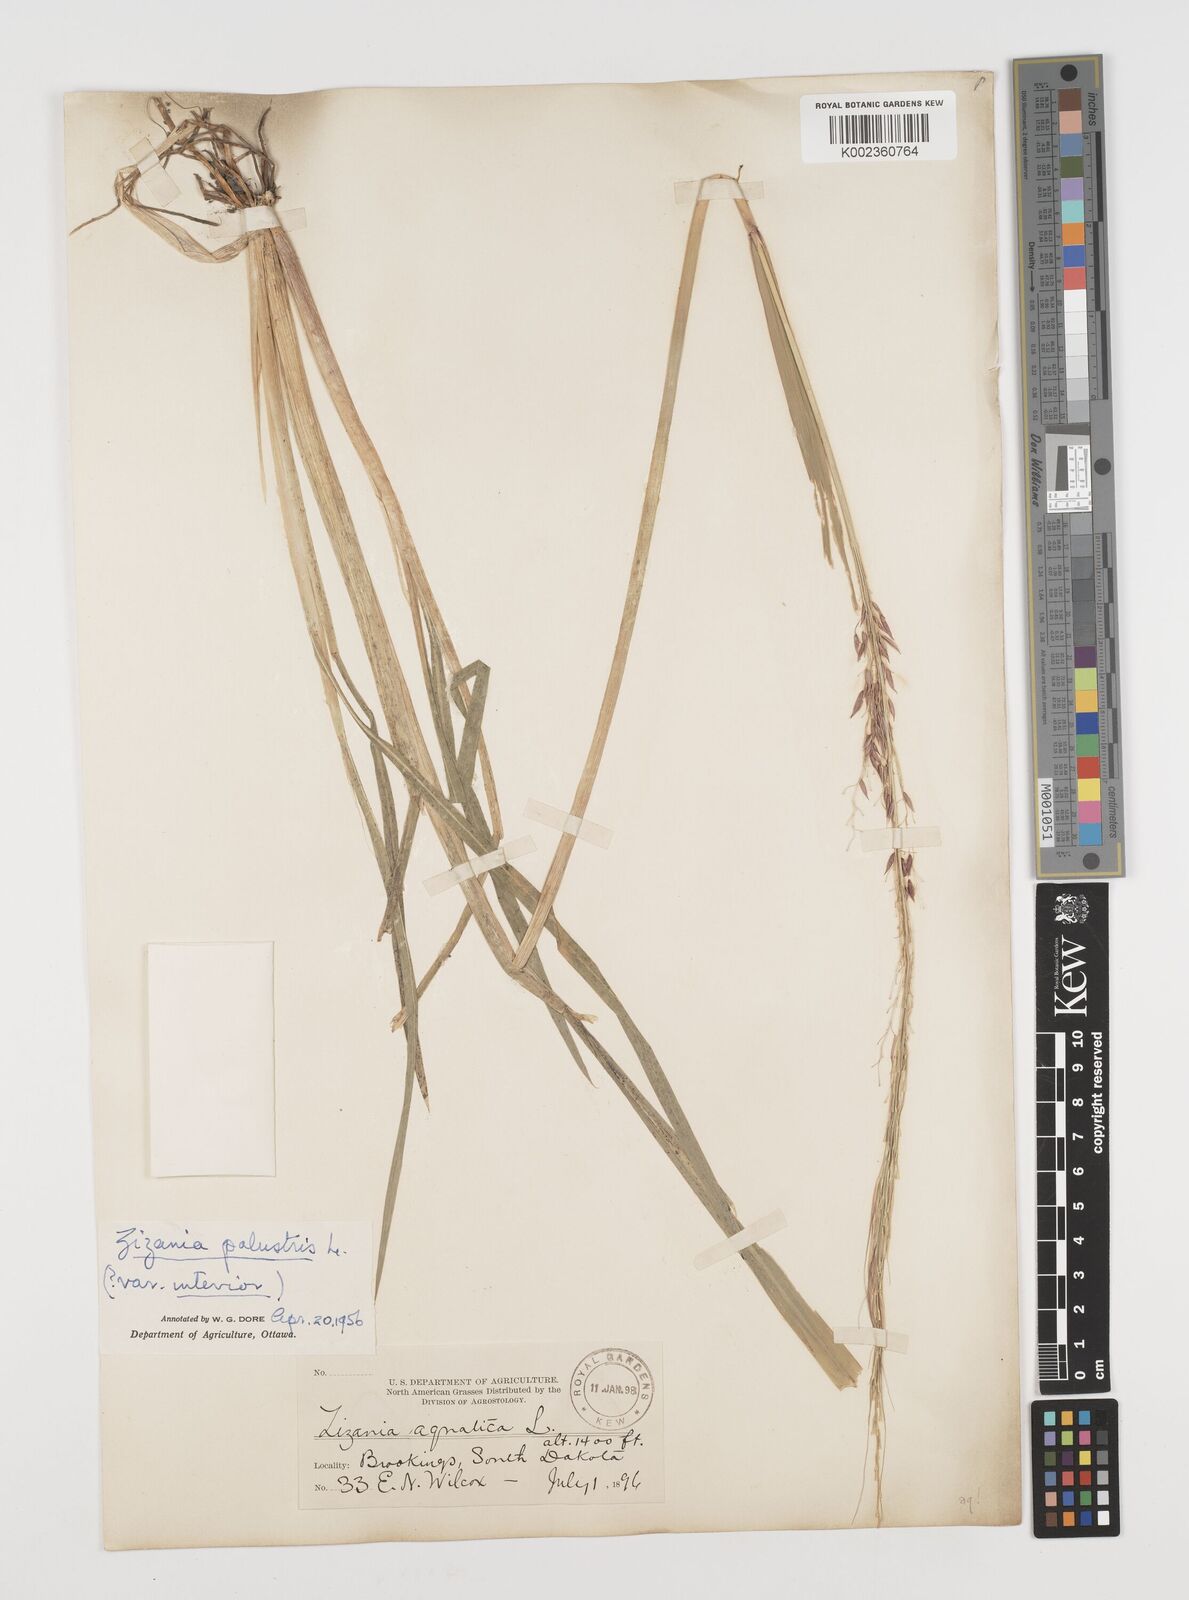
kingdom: Plantae
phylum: Tracheophyta
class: Liliopsida
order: Poales
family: Poaceae
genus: Zizania
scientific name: Zizania aquatica
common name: Annual wildrice
